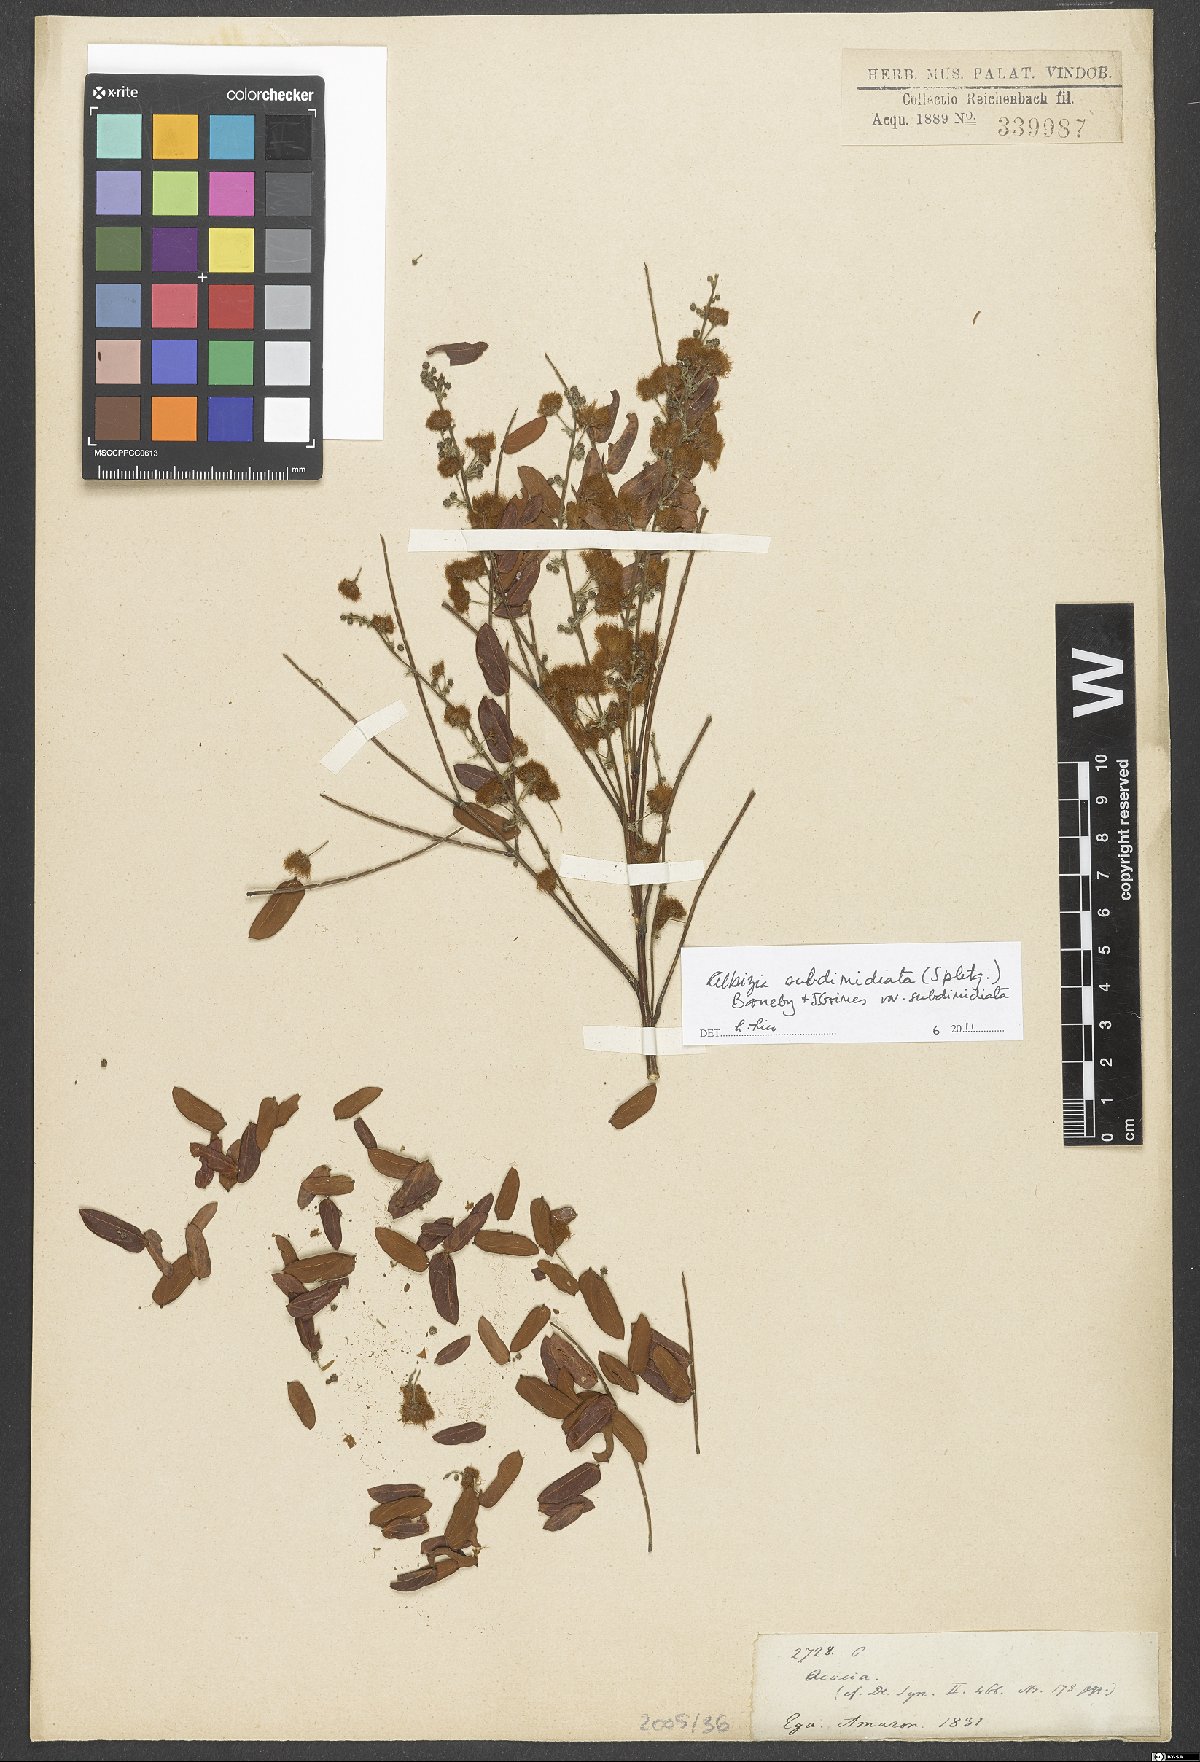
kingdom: Plantae
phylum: Tracheophyta
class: Magnoliopsida
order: Fabales
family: Fabaceae
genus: Albizia
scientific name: Albizia subdimidiata
